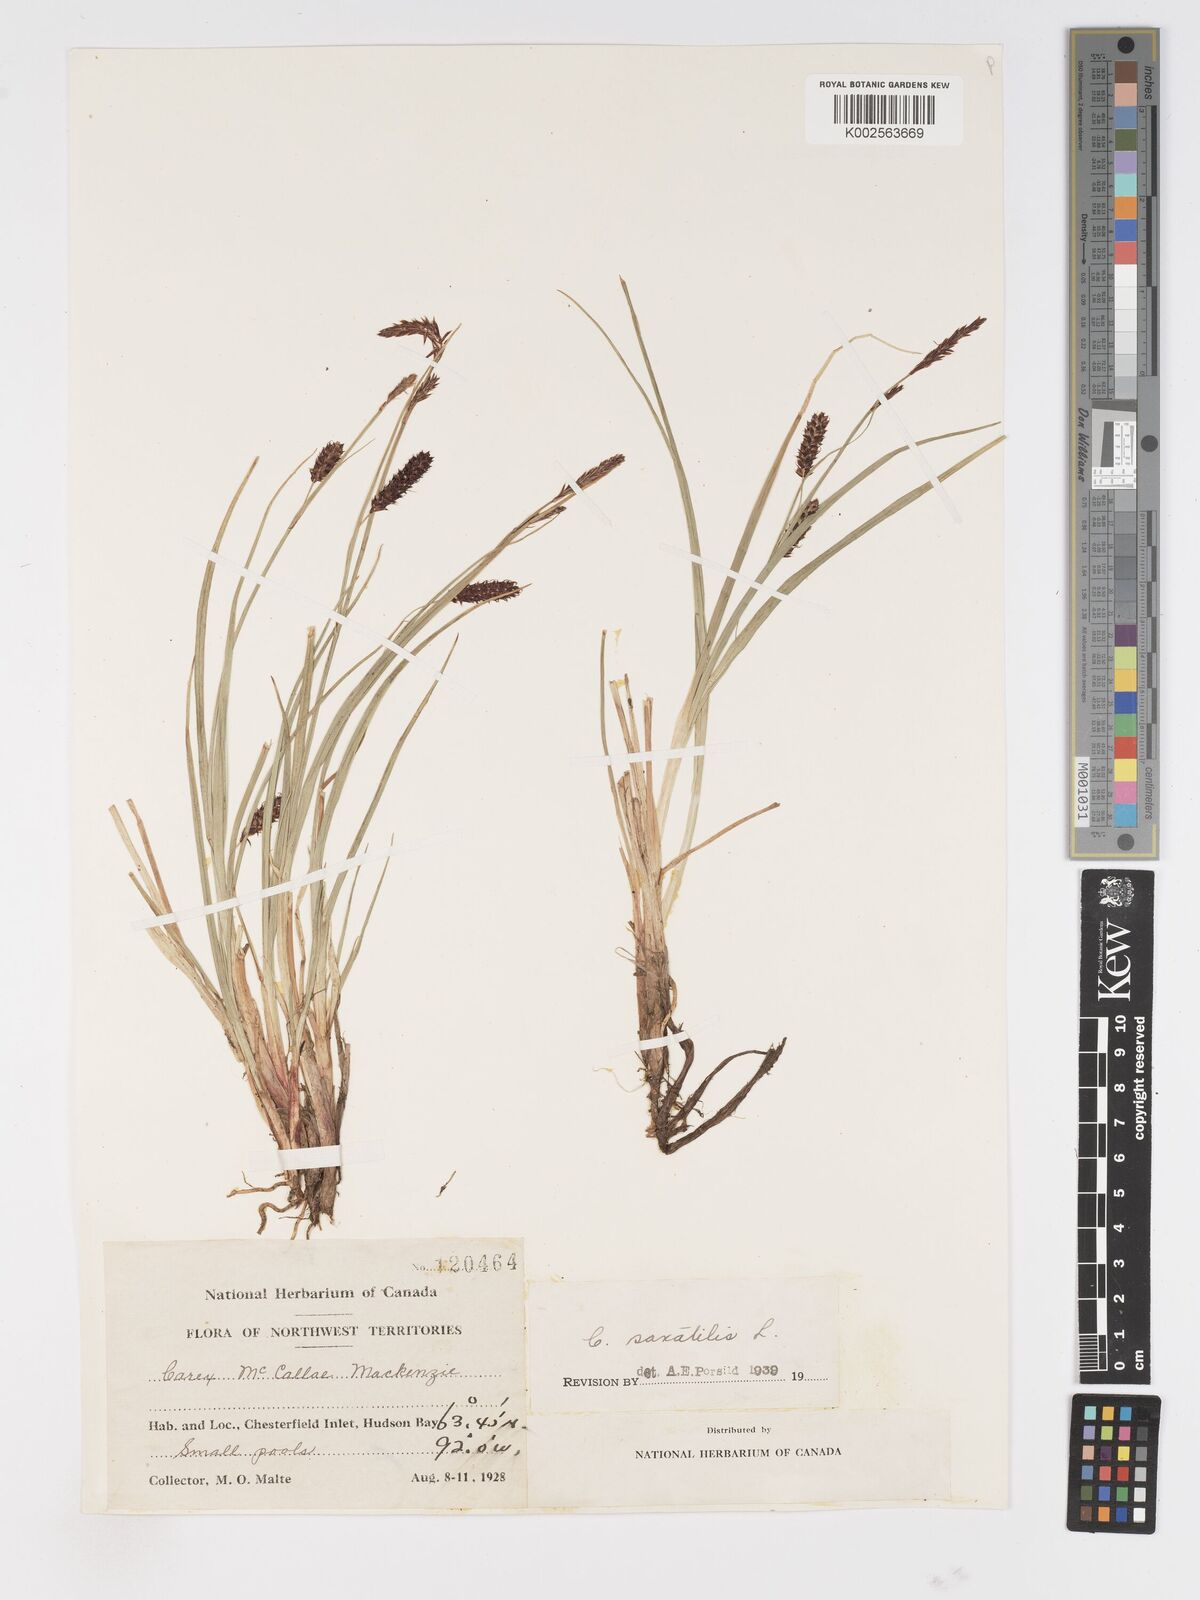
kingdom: Plantae
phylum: Tracheophyta
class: Liliopsida
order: Poales
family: Cyperaceae
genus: Carex
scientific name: Carex saxatilis
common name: Russet sedge
